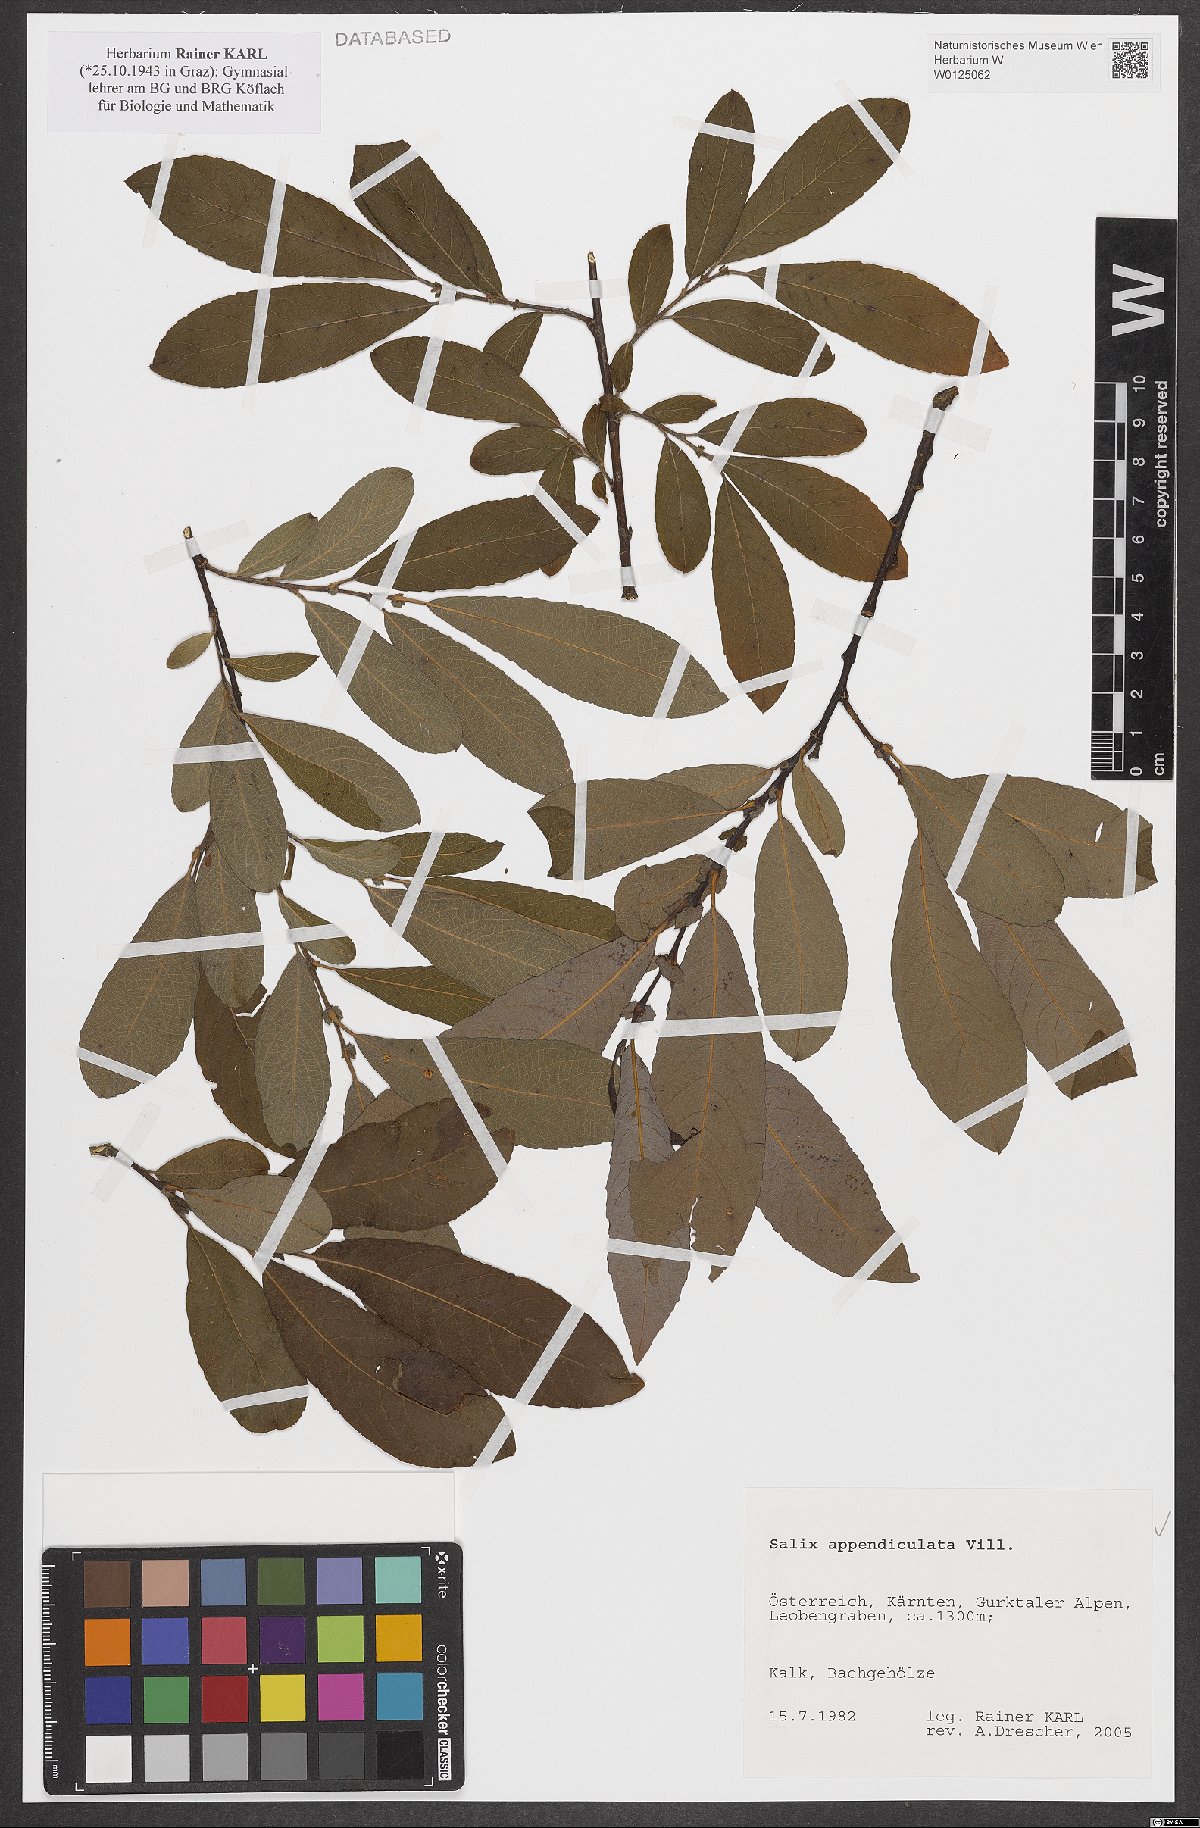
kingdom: Plantae
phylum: Tracheophyta
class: Magnoliopsida
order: Malpighiales
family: Salicaceae
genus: Salix
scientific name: Salix appendiculata
